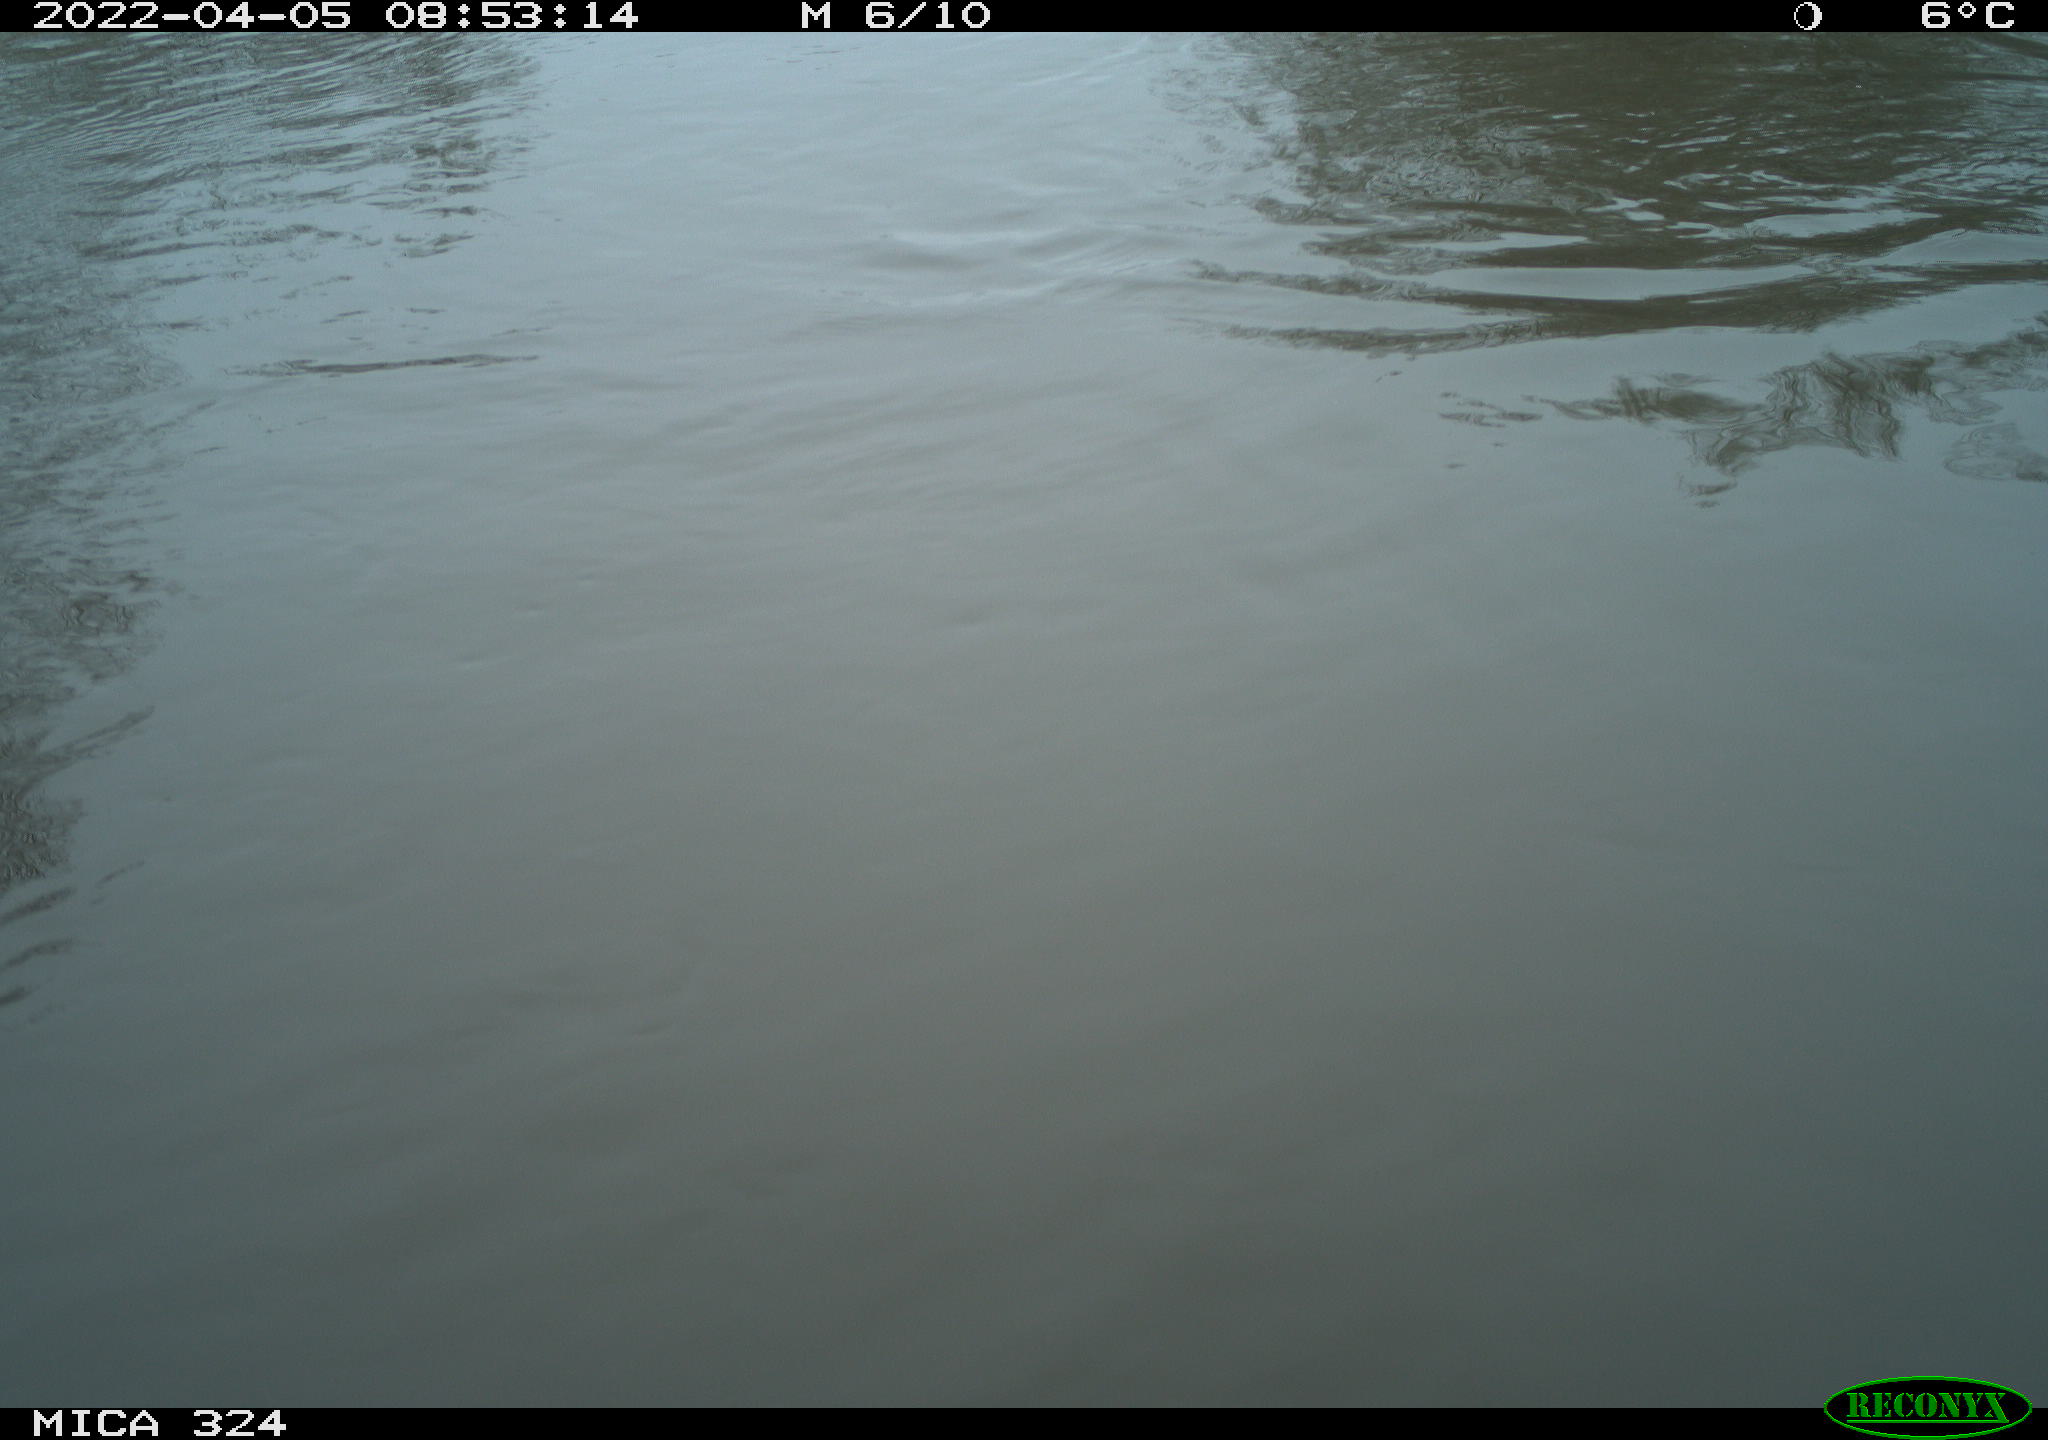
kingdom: Animalia
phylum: Chordata
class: Aves
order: Gruiformes
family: Rallidae
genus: Gallinula
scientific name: Gallinula chloropus
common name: Common moorhen
